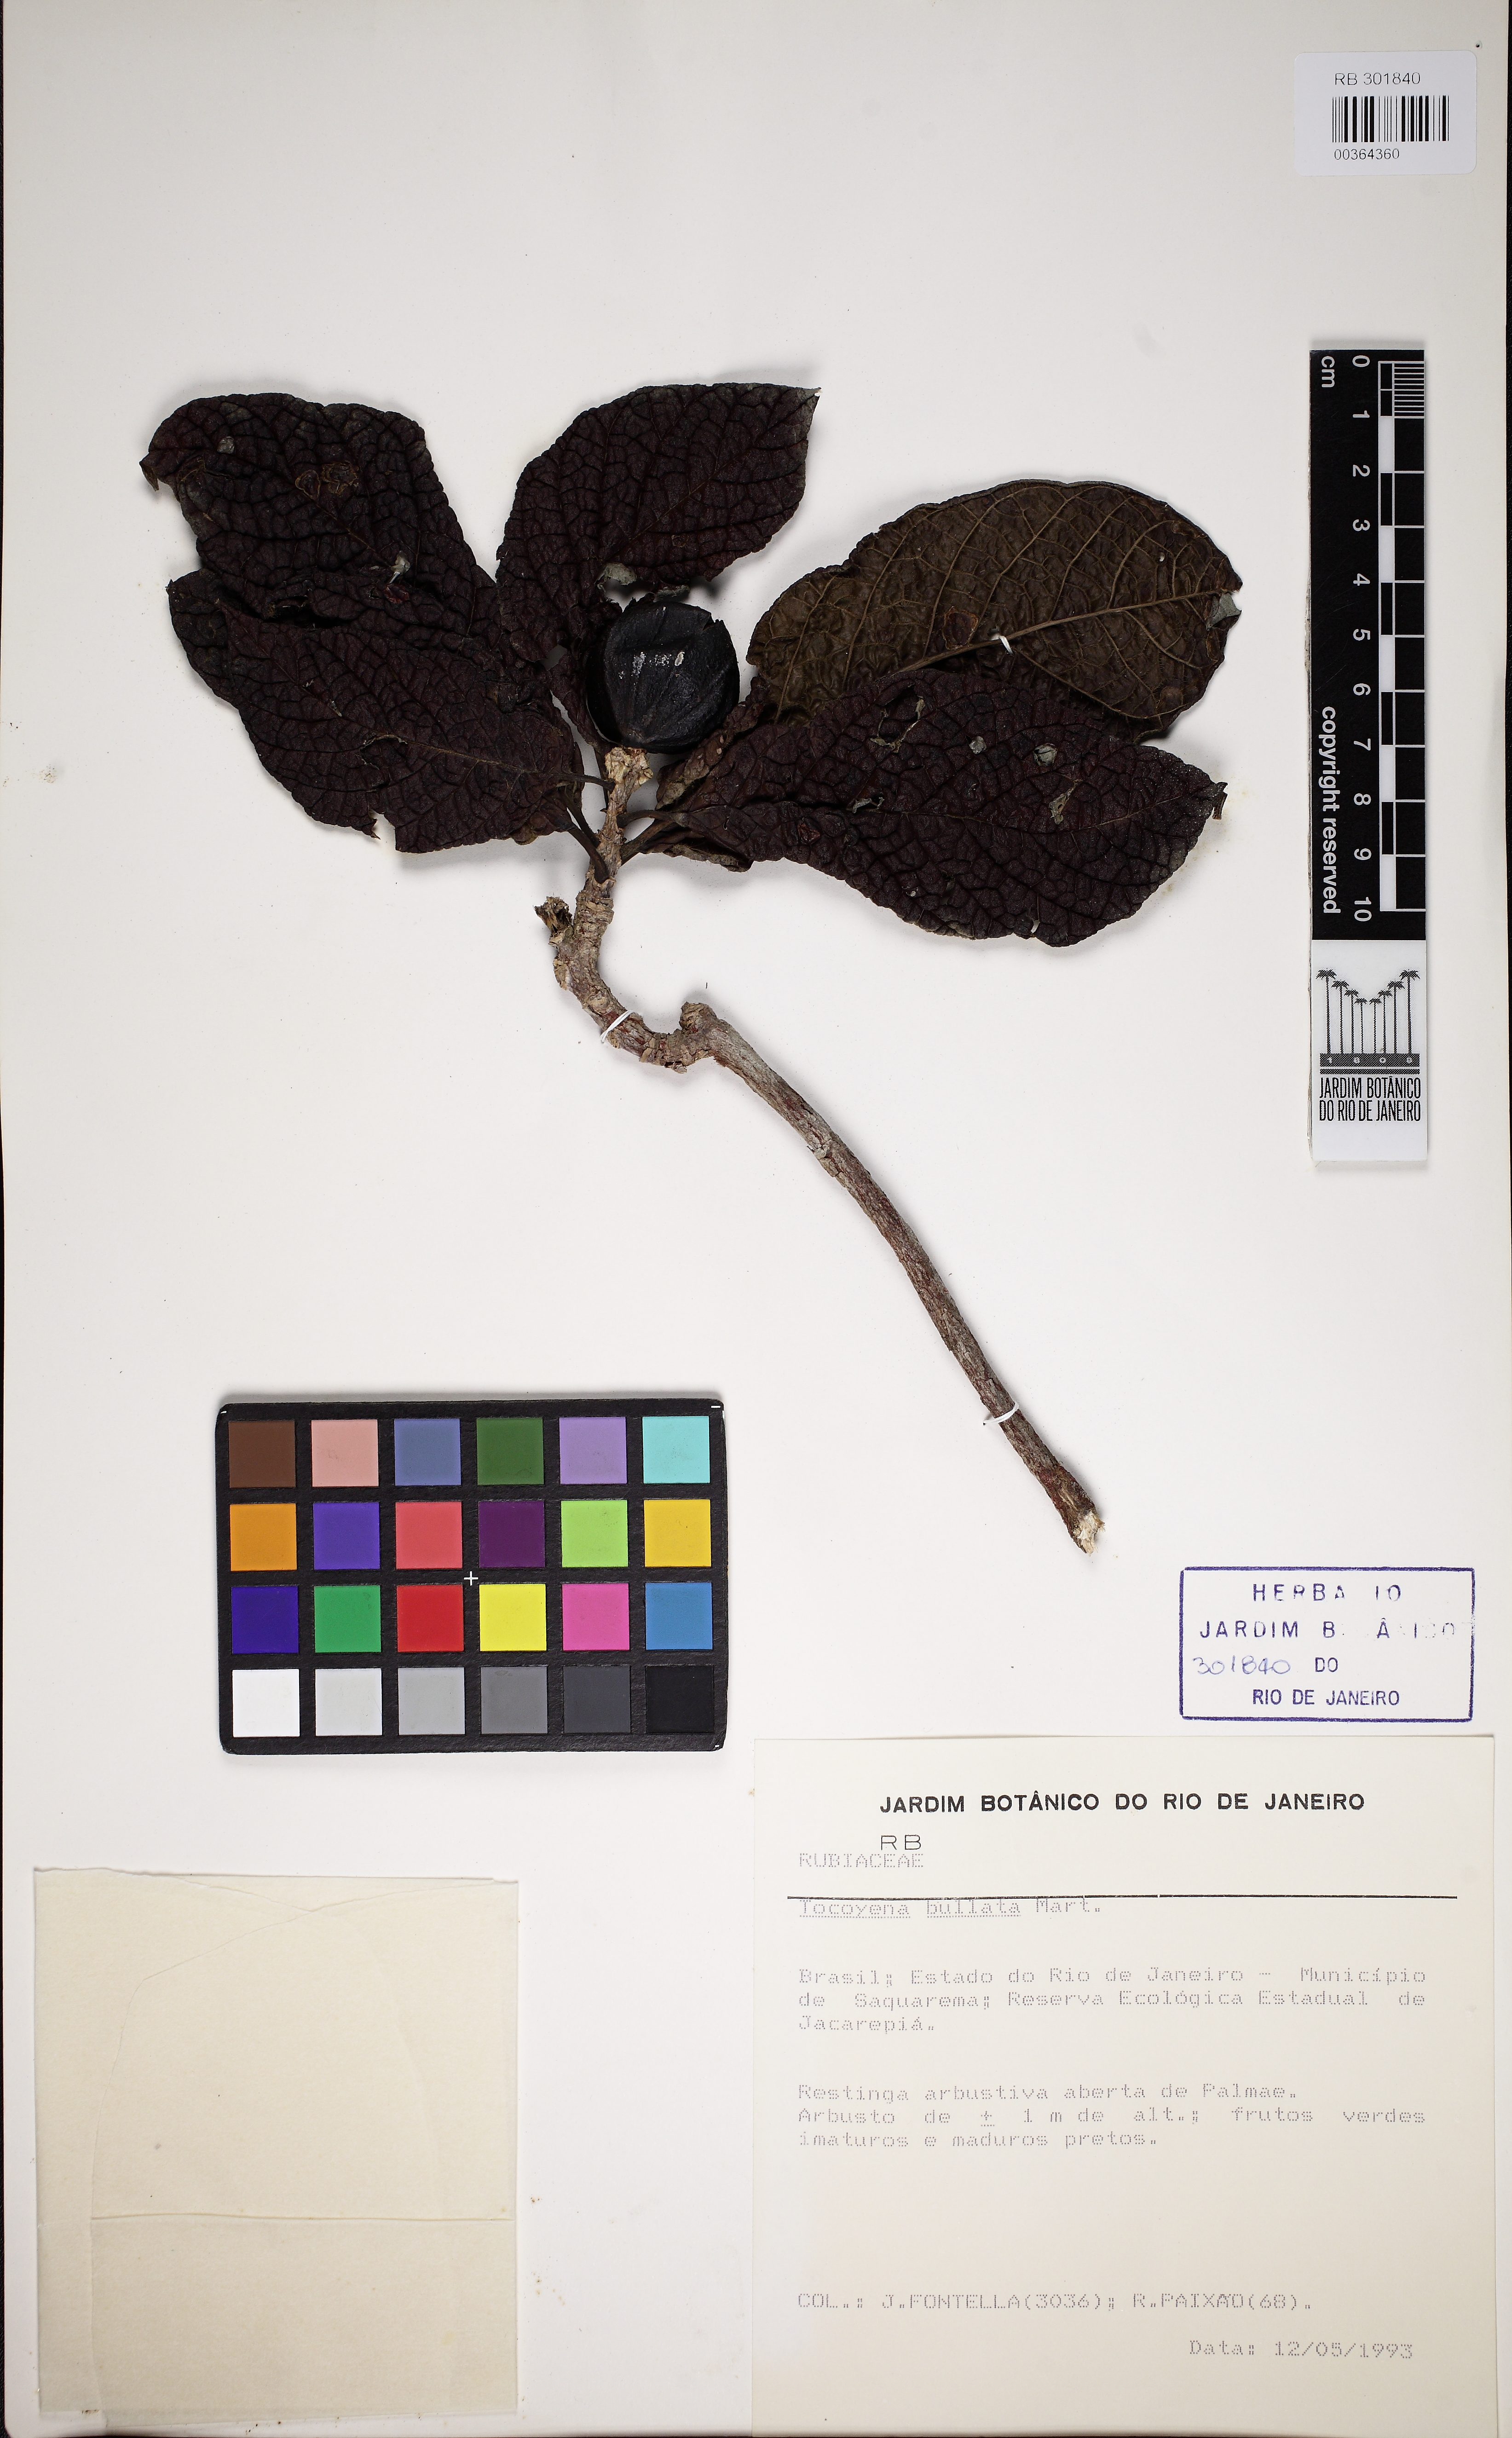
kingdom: Plantae
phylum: Tracheophyta
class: Magnoliopsida
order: Gentianales
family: Rubiaceae
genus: Tocoyena
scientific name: Tocoyena bullata
